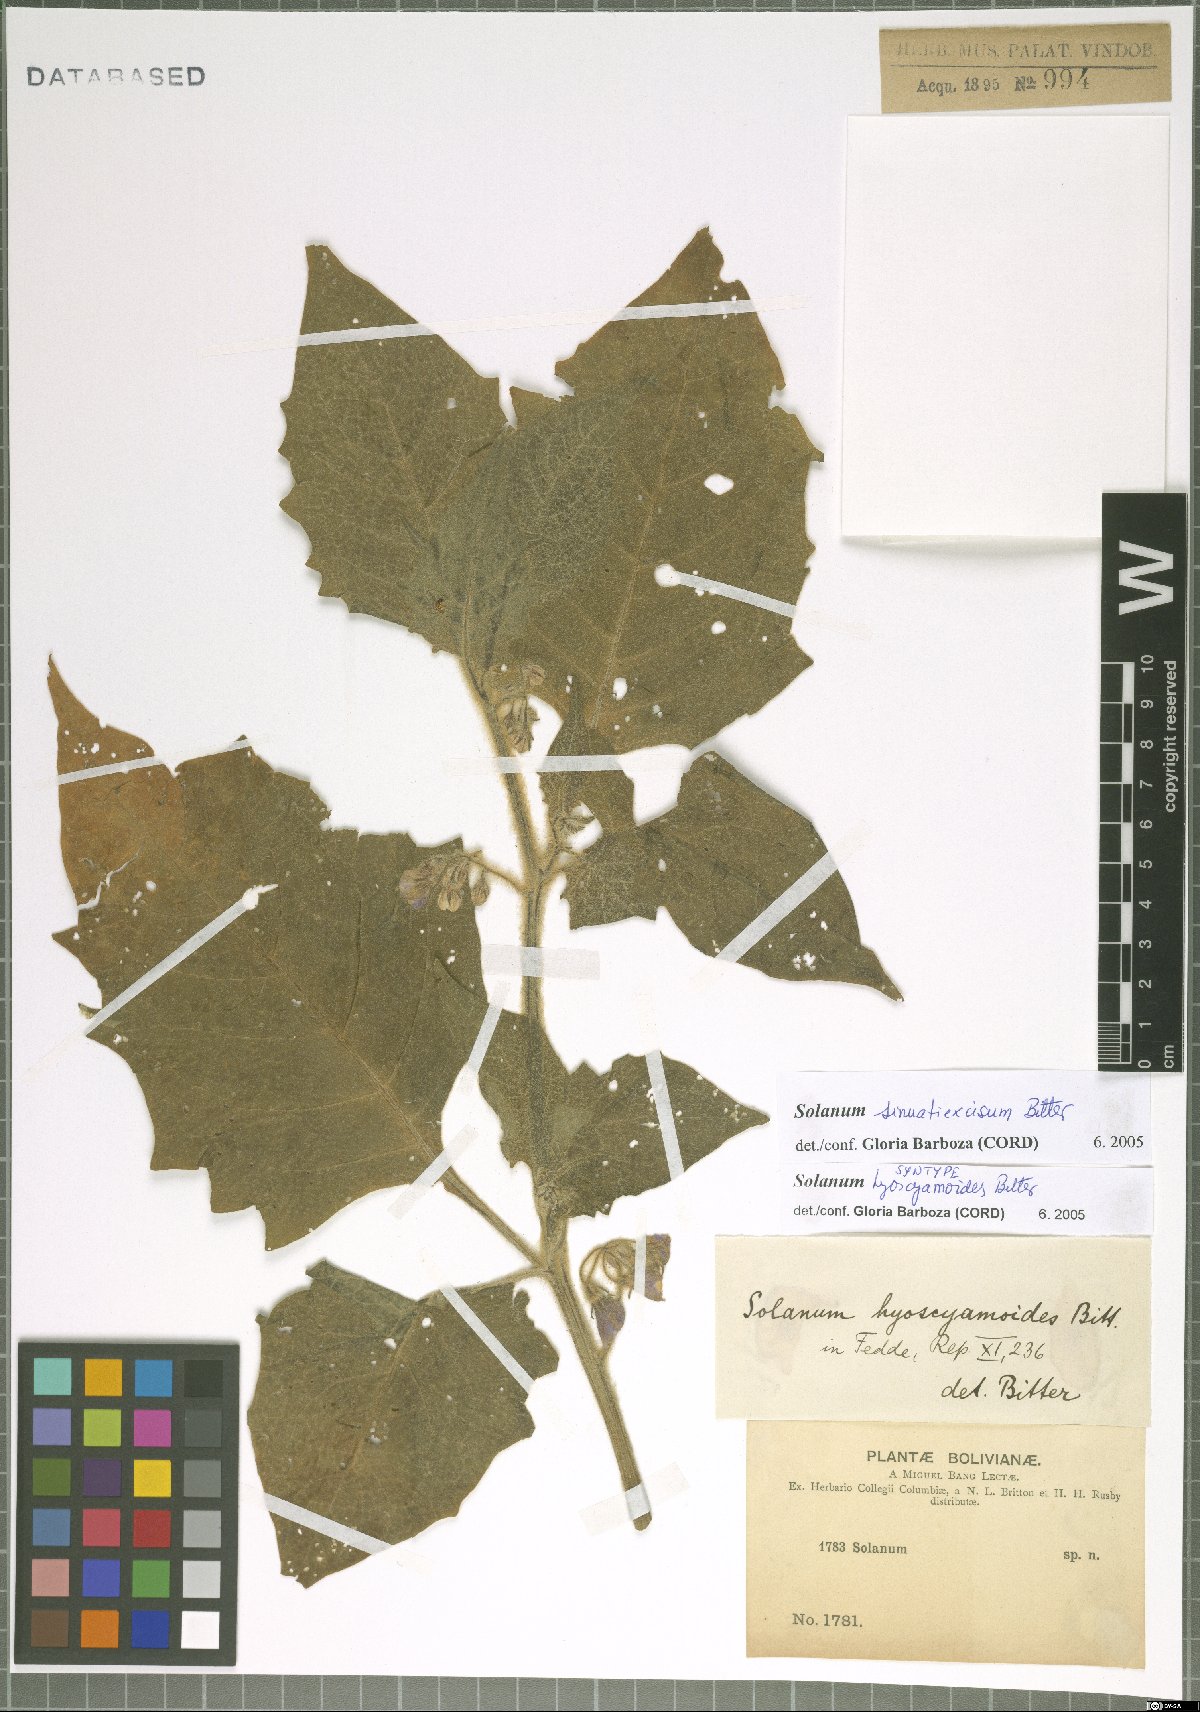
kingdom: Plantae
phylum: Tracheophyta
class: Magnoliopsida
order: Solanales
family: Solanaceae
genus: Solanum
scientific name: Solanum sinuatiexcisum
